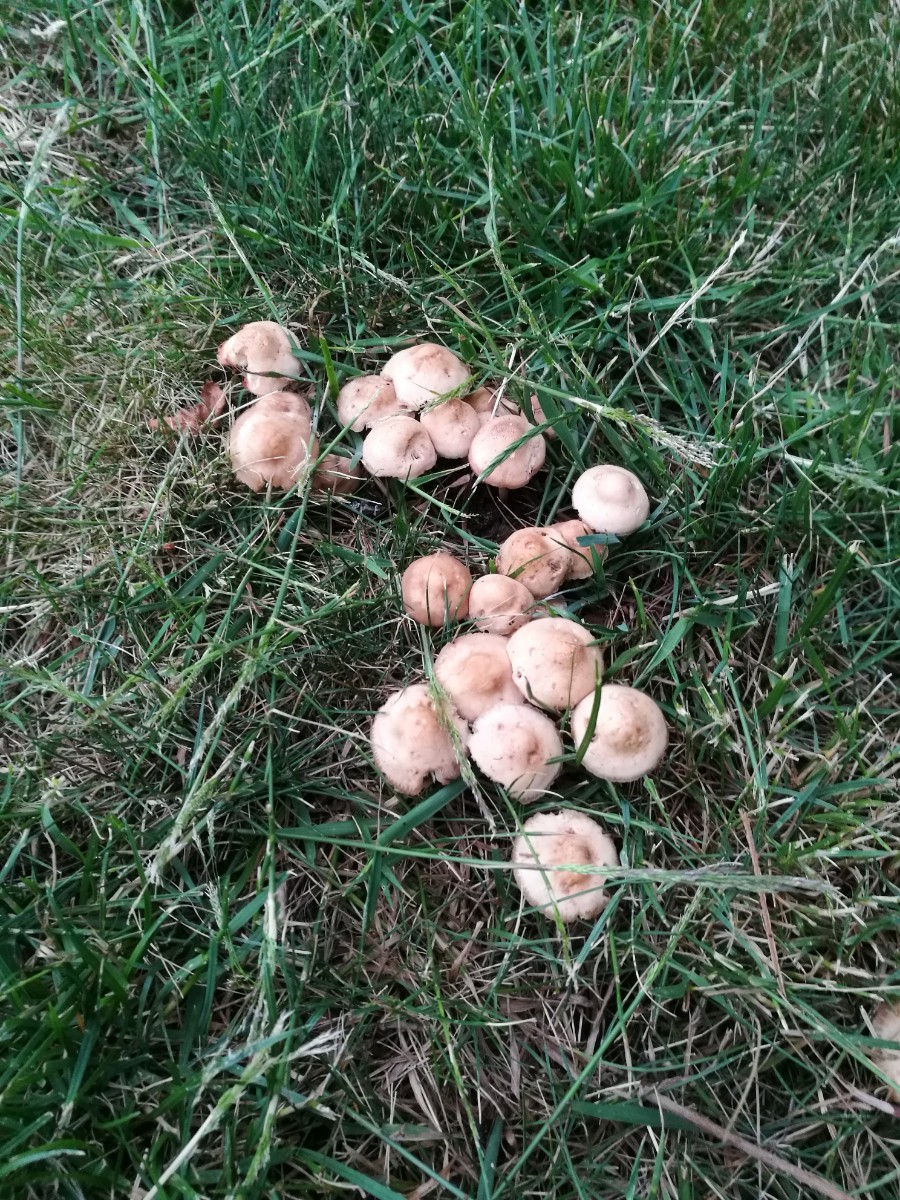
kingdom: Fungi
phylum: Basidiomycota
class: Agaricomycetes
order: Agaricales
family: Marasmiaceae
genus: Marasmius
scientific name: Marasmius oreades
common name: elledans-bruskhat
